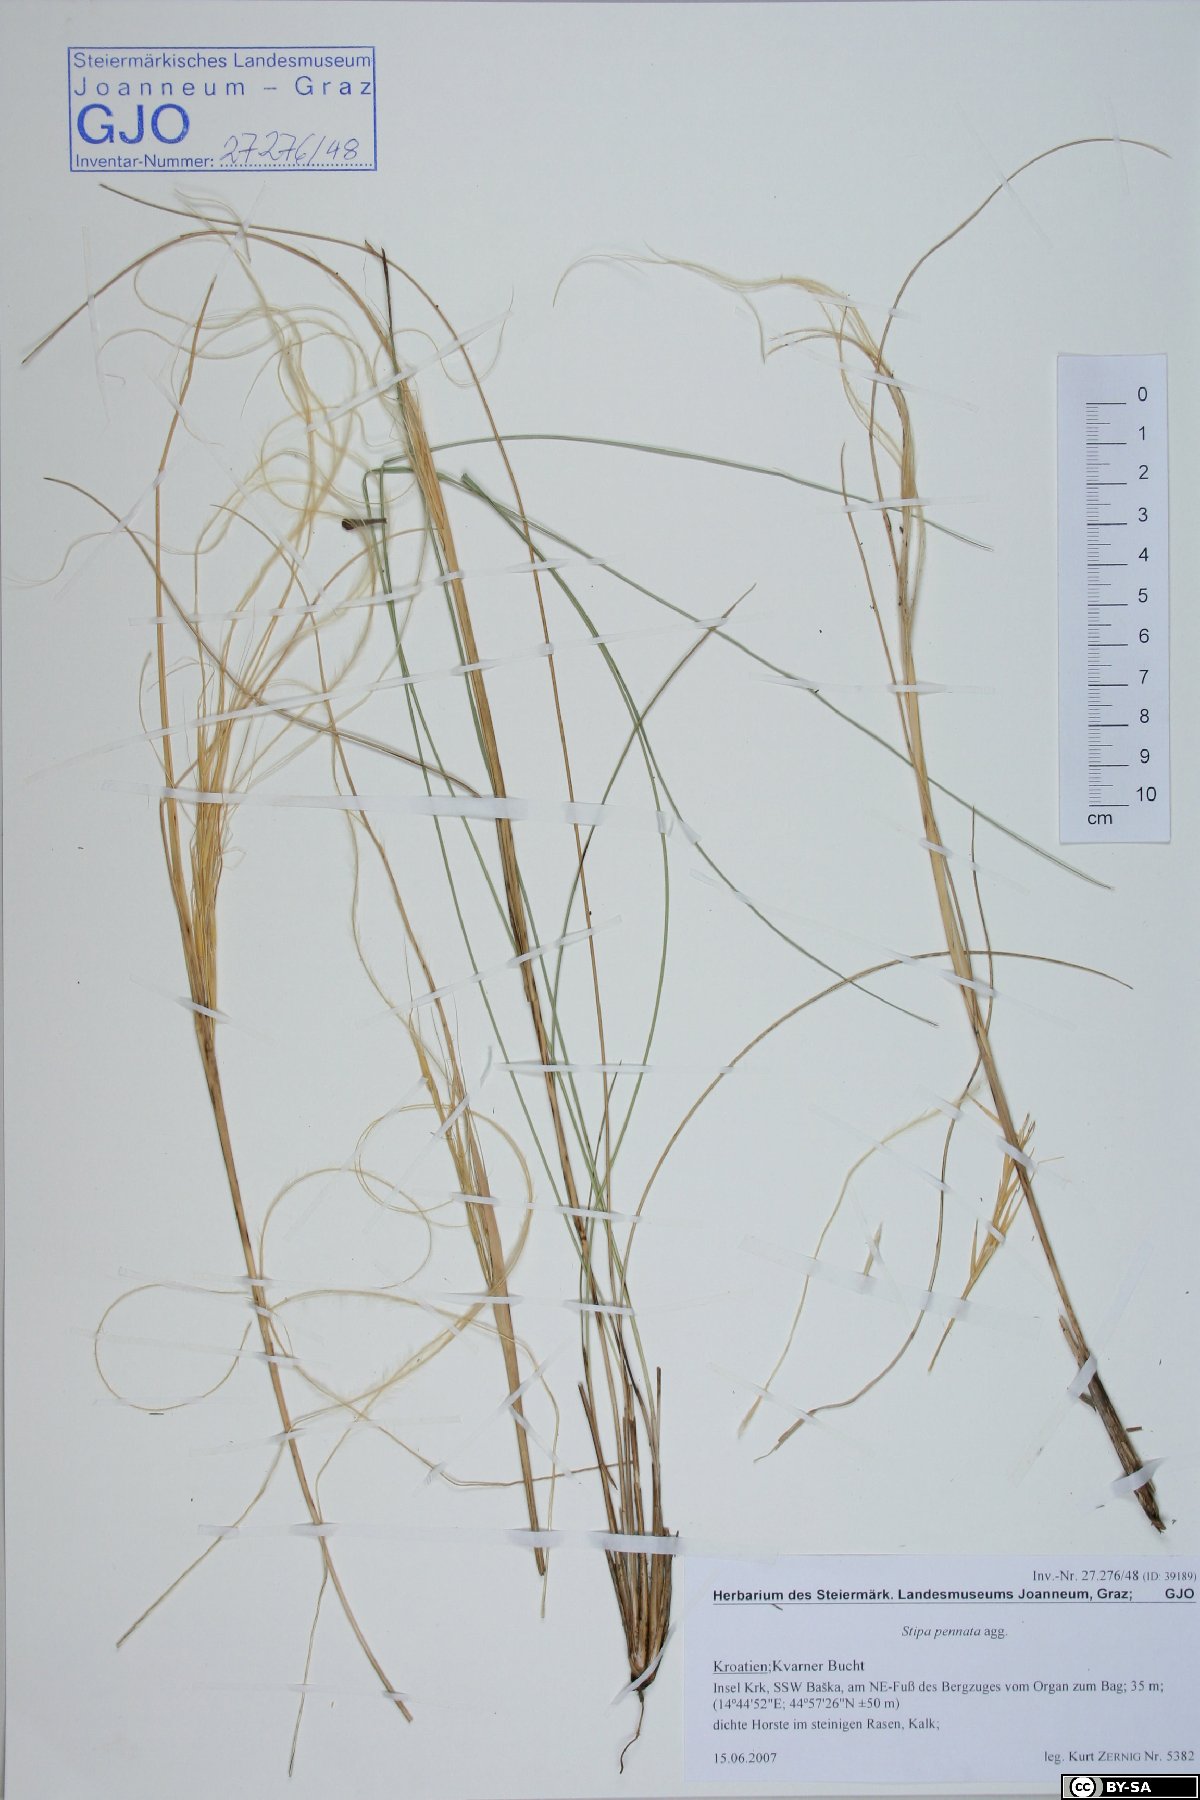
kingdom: Plantae
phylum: Tracheophyta
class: Liliopsida
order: Poales
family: Poaceae
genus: Stipa
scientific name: Stipa pennata
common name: European feather grass
